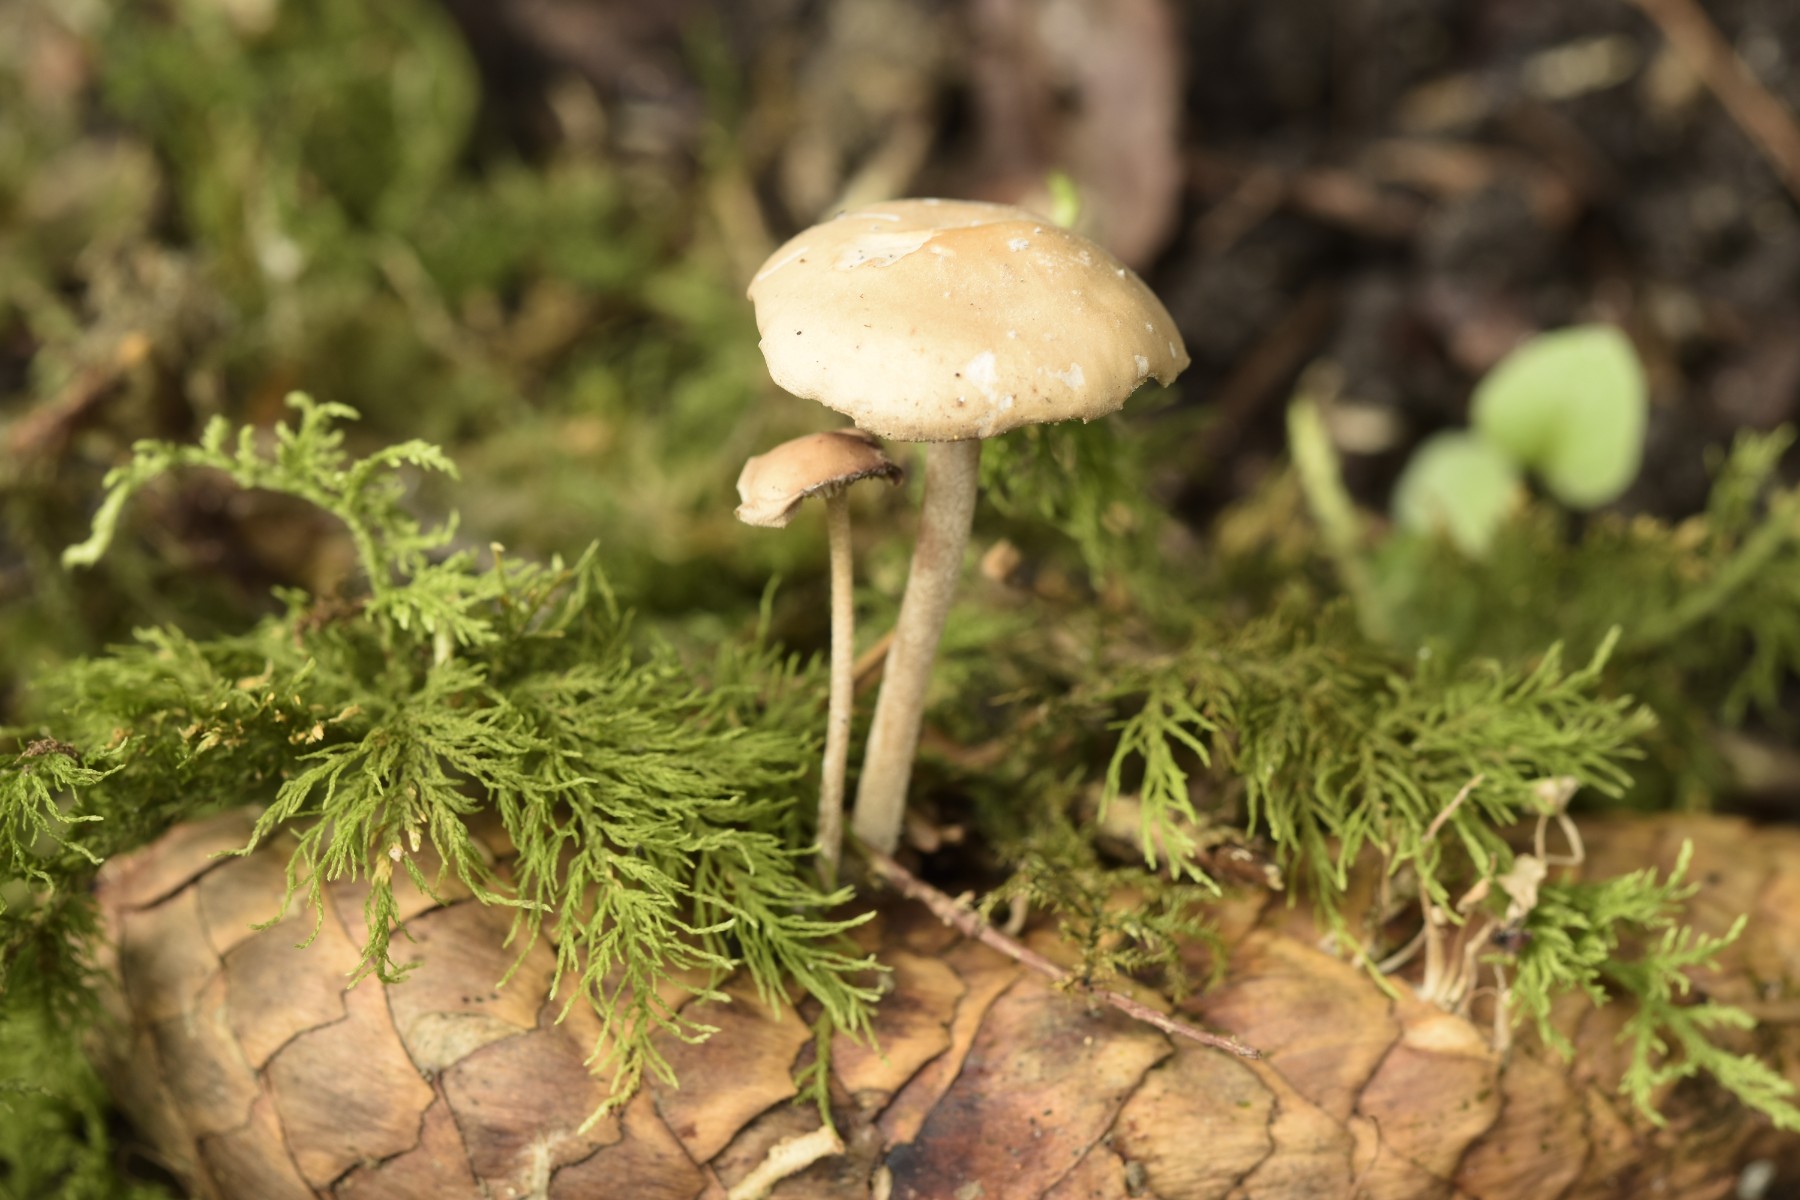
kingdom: Fungi
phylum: Basidiomycota
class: Agaricomycetes
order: Agaricales
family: Physalacriaceae
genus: Strobilurus
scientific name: Strobilurus esculentus
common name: gran-koglehat
